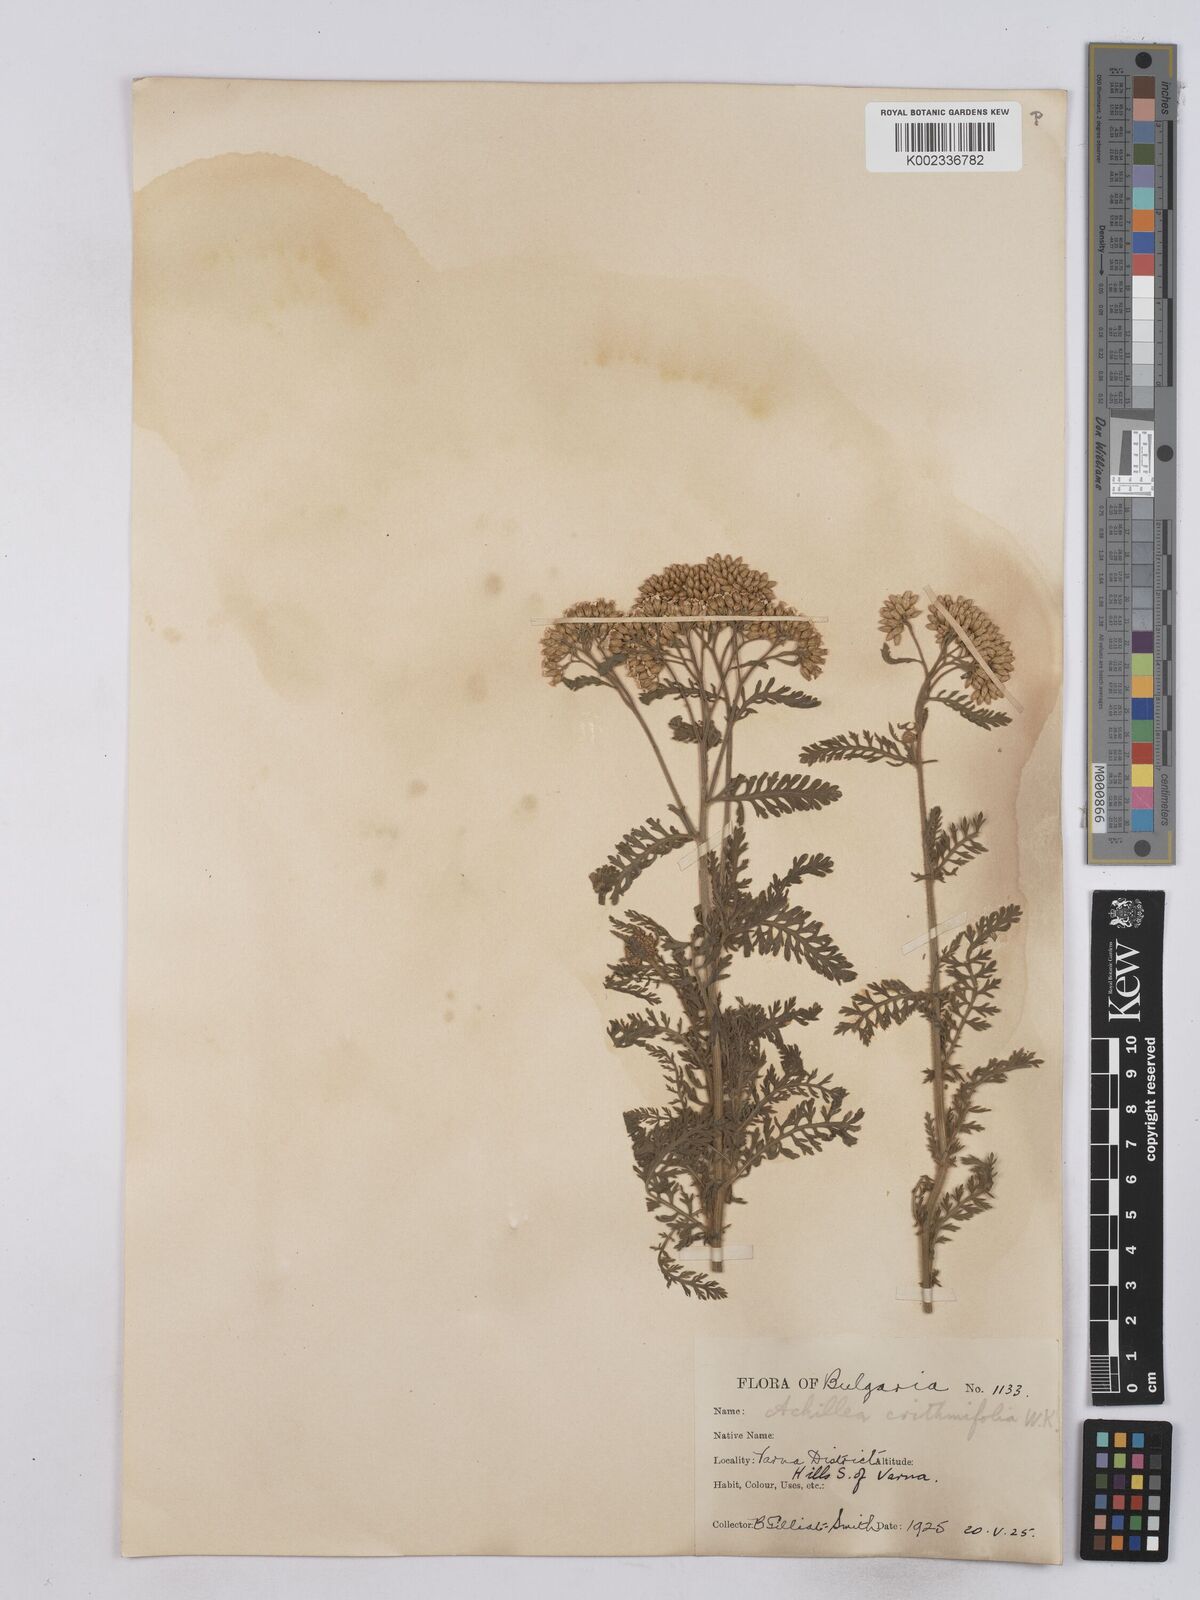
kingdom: Plantae
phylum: Tracheophyta
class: Magnoliopsida
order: Asterales
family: Asteraceae
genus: Achillea
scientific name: Achillea crithmifolia
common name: Yarrow
